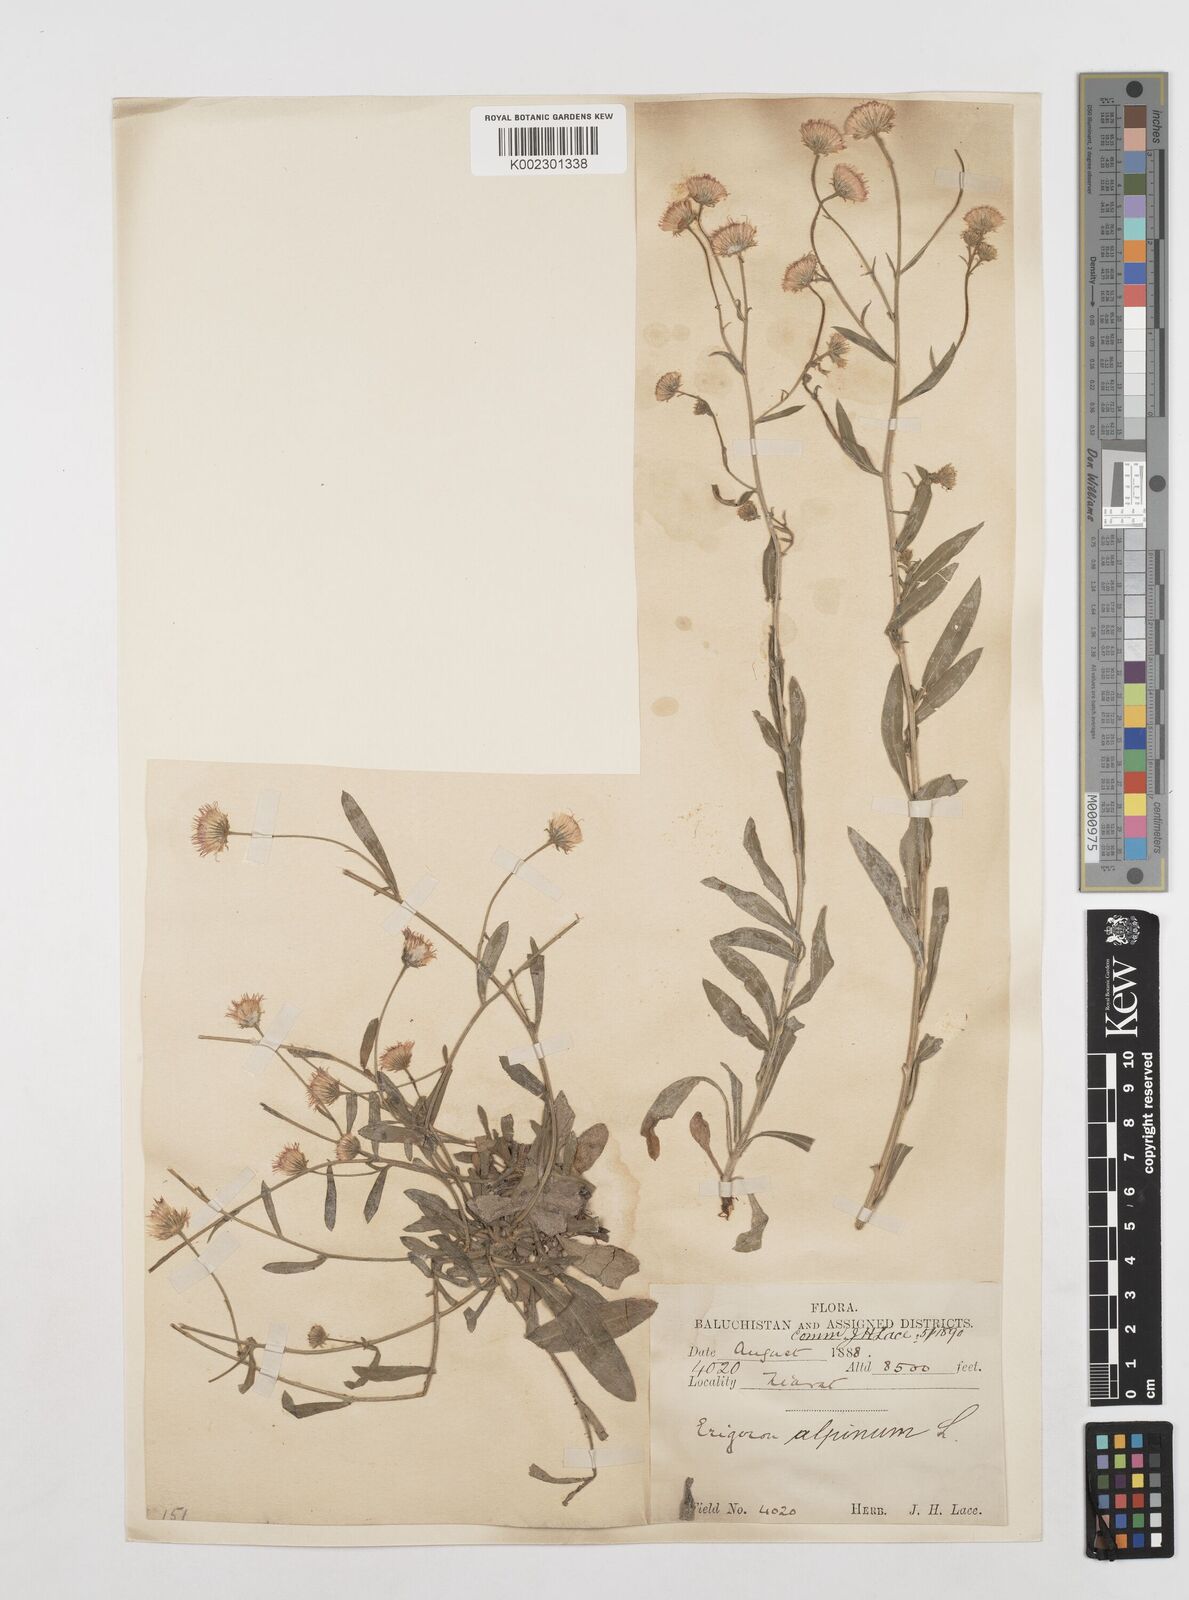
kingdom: Plantae
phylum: Tracheophyta
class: Magnoliopsida
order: Asterales
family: Asteraceae
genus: Erigeron
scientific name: Erigeron muralis
